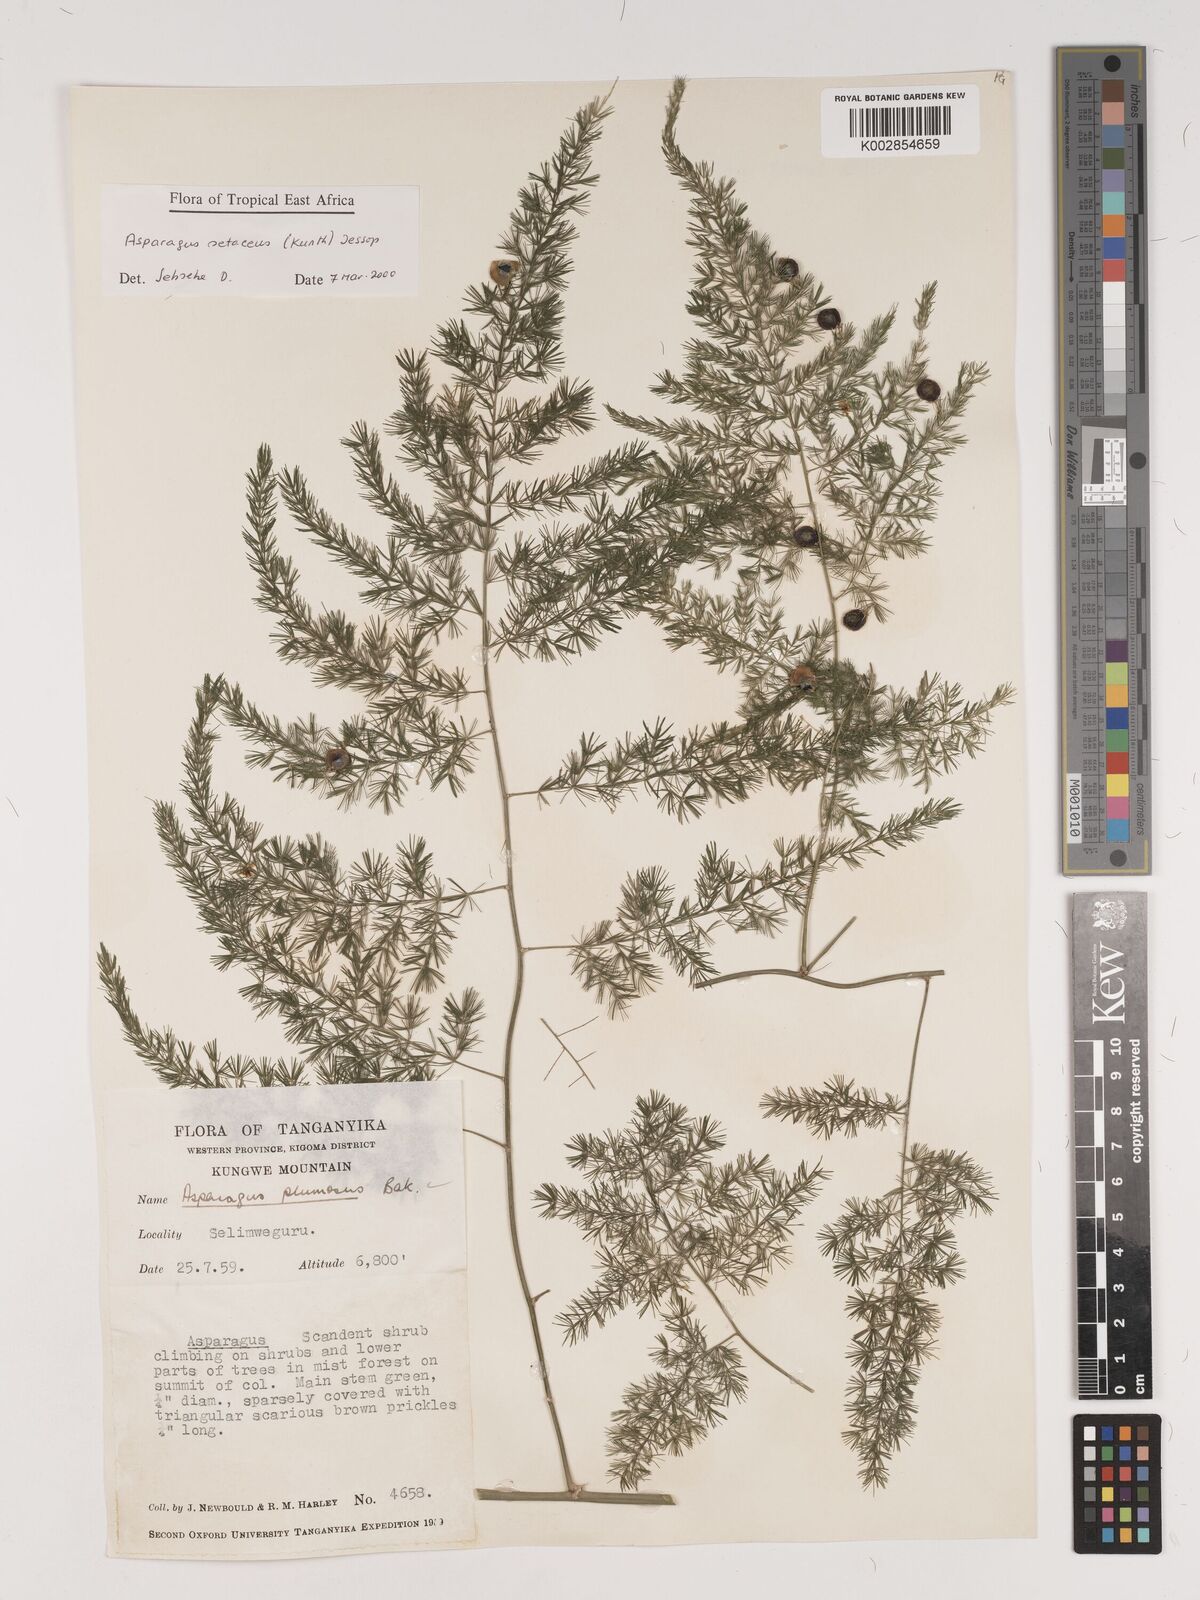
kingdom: Plantae
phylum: Tracheophyta
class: Liliopsida
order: Asparagales
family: Asparagaceae
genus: Asparagus
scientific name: Asparagus setaceus
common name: Common asparagus fern
